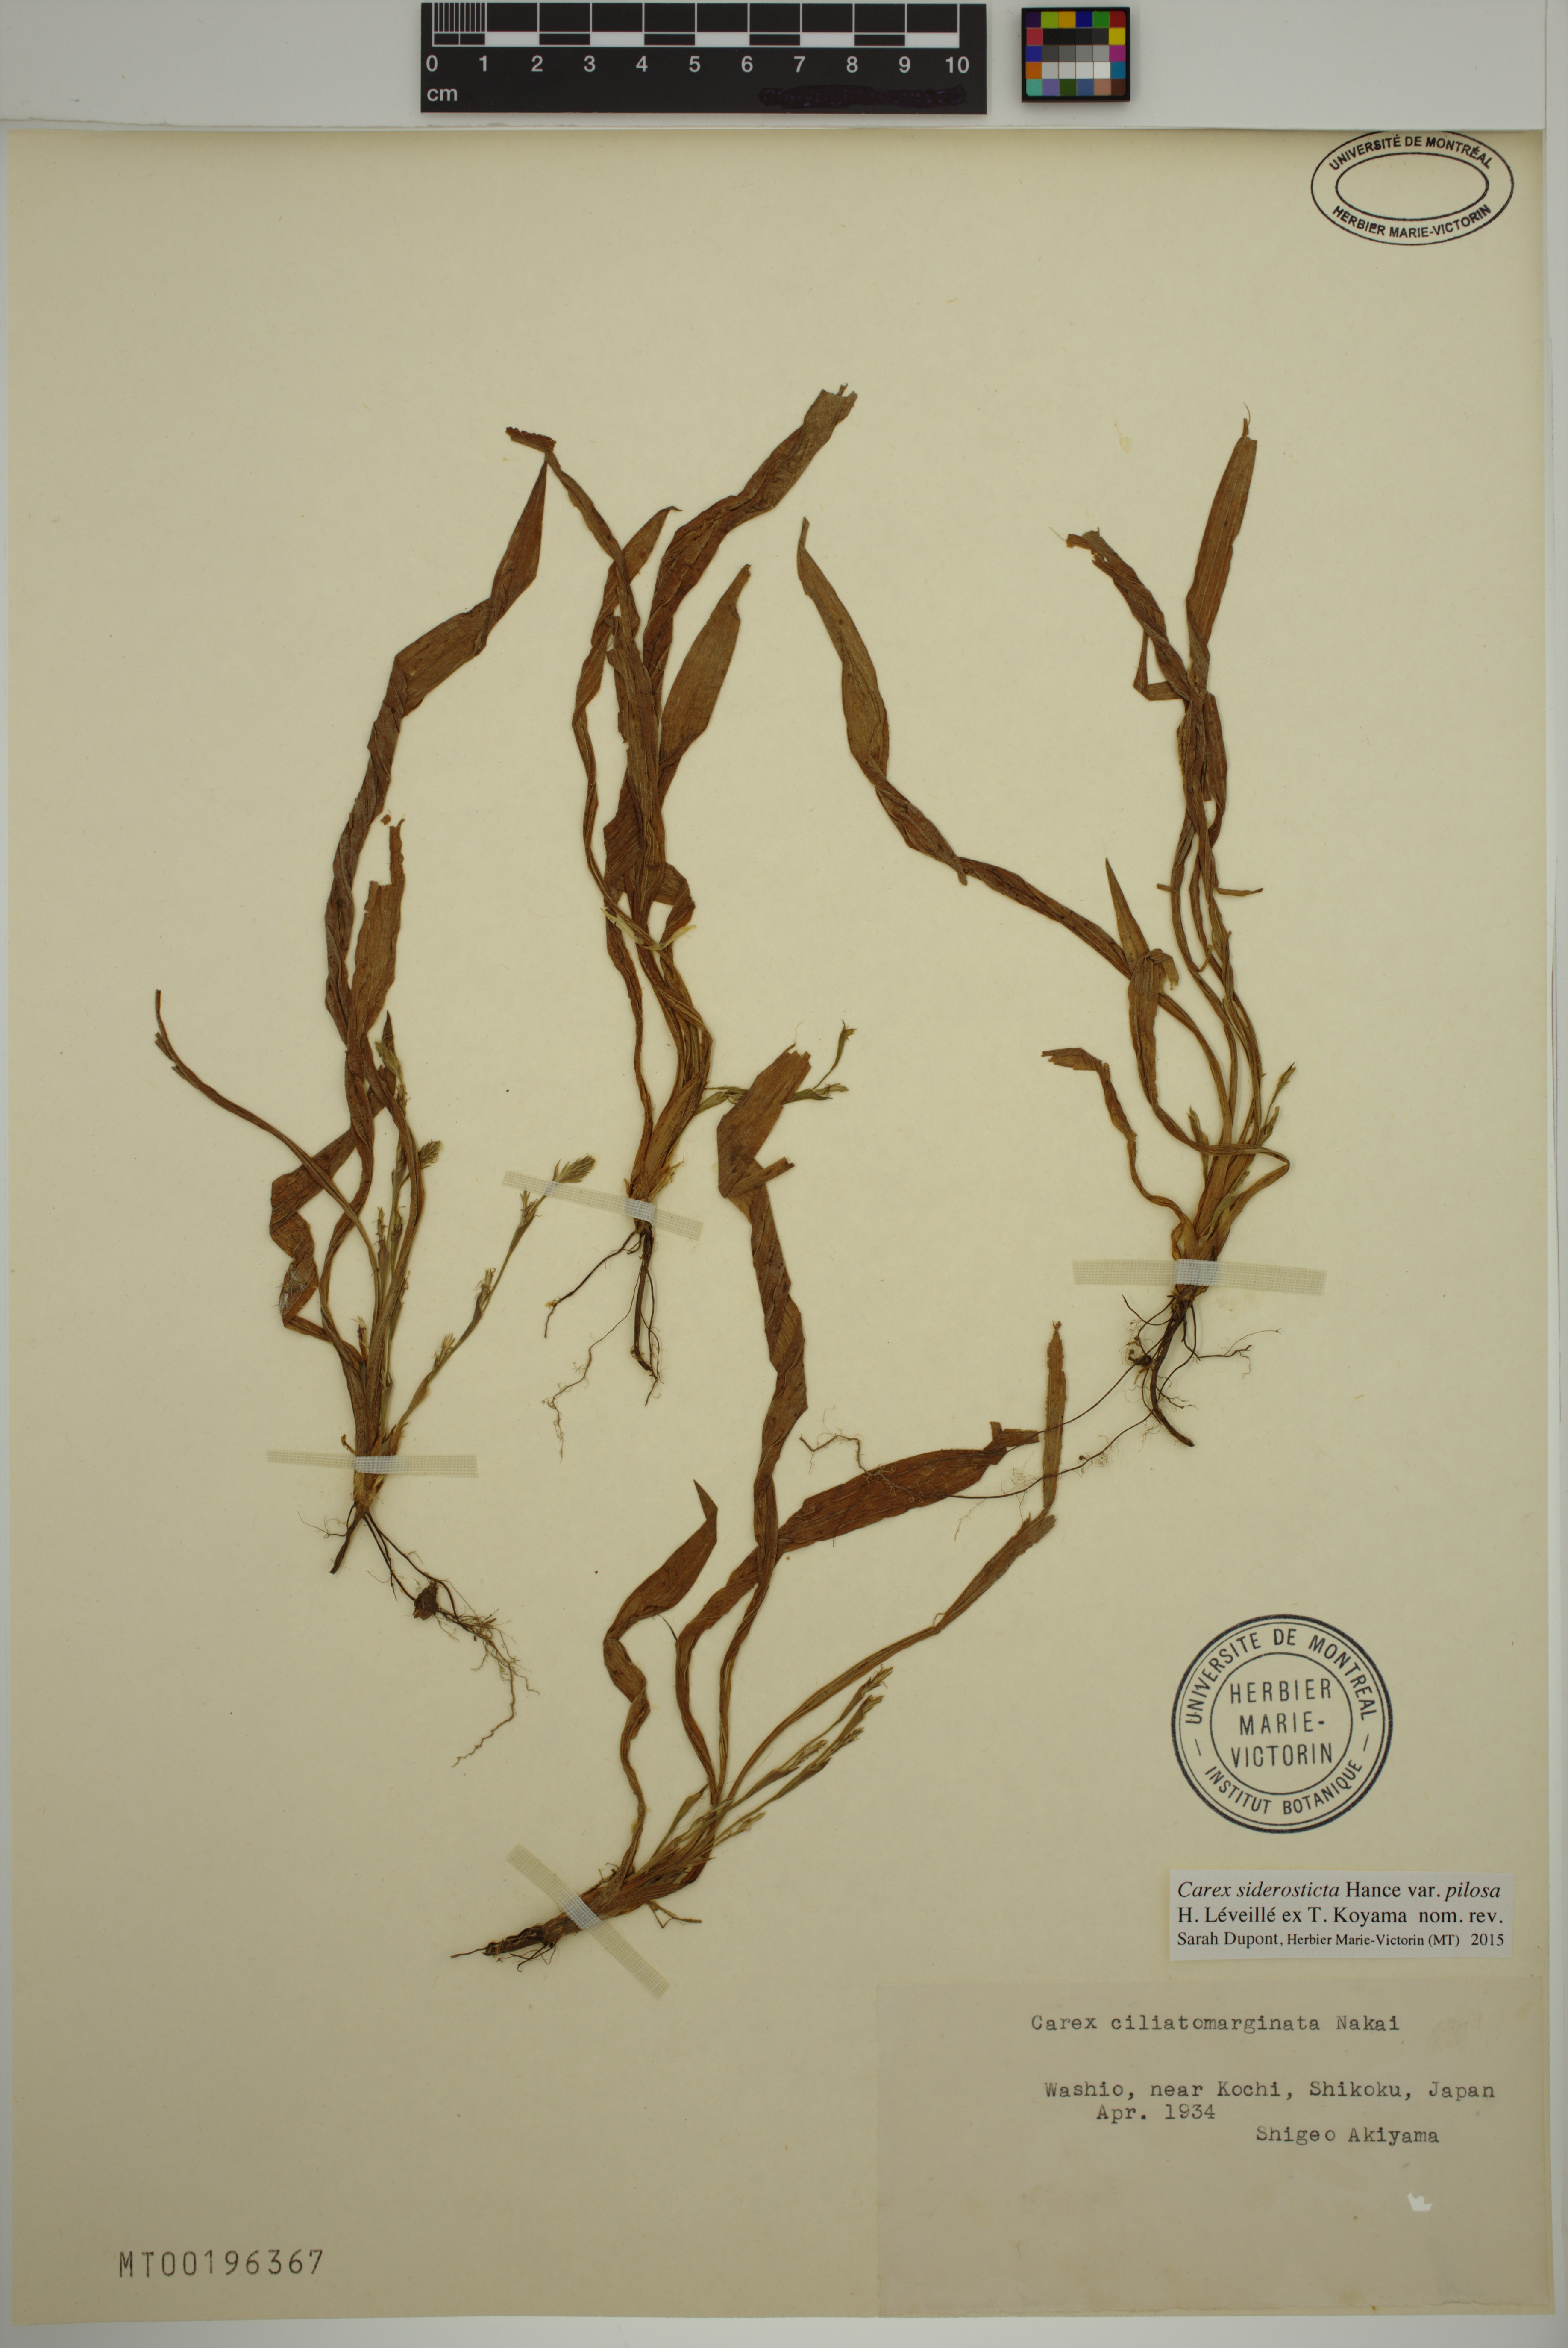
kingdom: Plantae
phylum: Tracheophyta
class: Liliopsida
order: Poales
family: Cyperaceae
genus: Carex
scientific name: Carex siderosticta
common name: Broadleaf sedge
